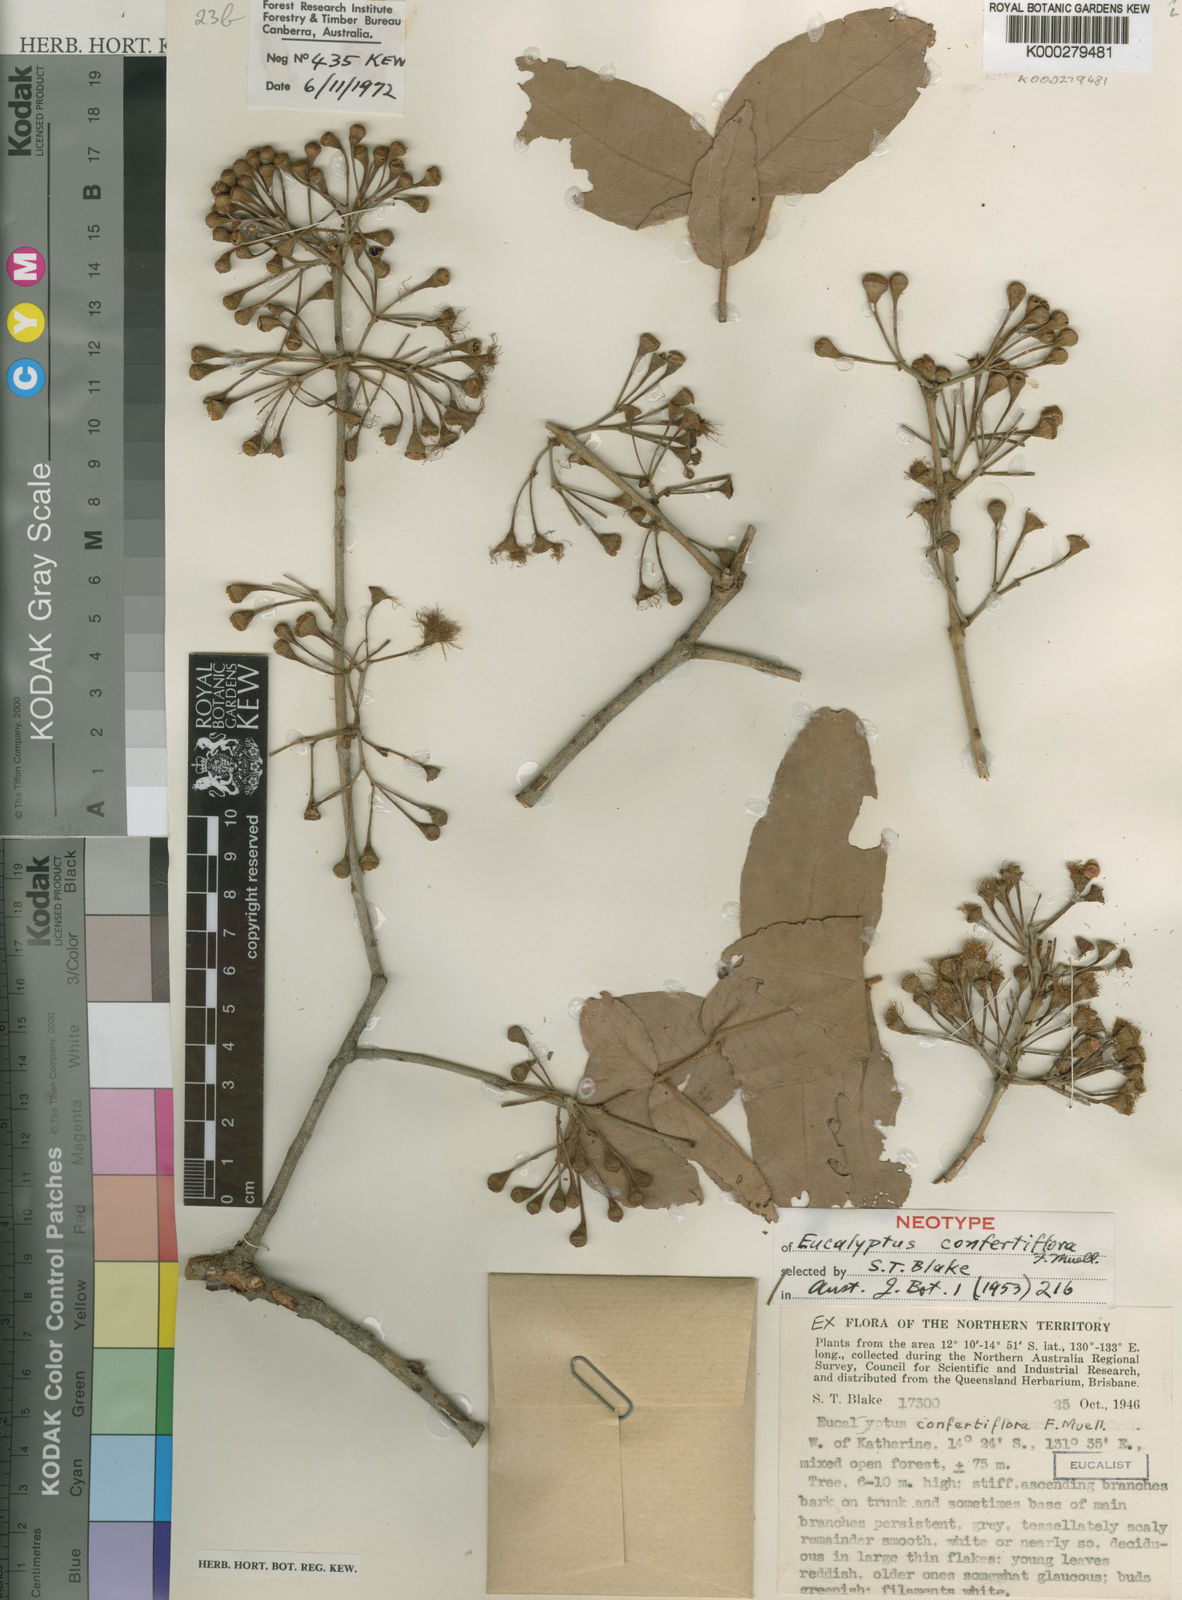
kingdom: Plantae
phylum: Tracheophyta
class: Magnoliopsida
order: Myrtales
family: Myrtaceae
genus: Corymbia
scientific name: Corymbia confertiflora
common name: Broad-leaved-carbeen
